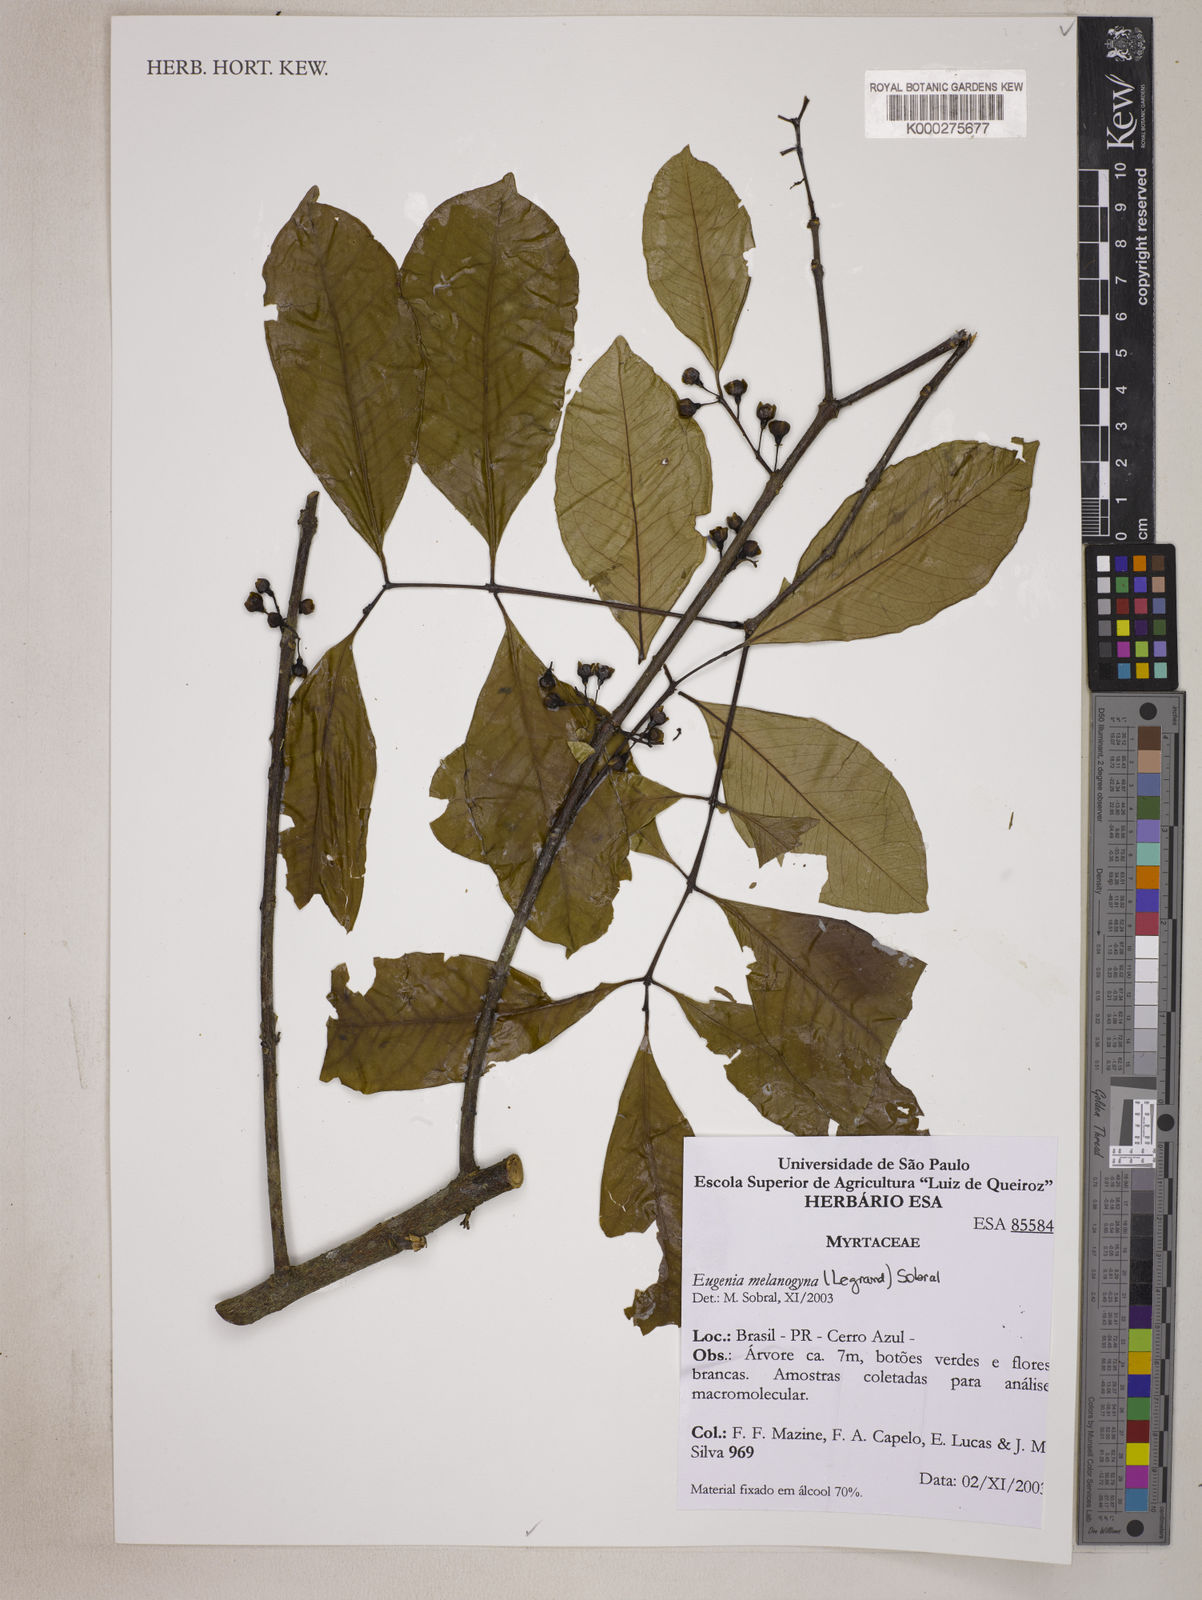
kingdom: Plantae
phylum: Tracheophyta
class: Magnoliopsida
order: Myrtales
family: Myrtaceae
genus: Eugenia
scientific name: Eugenia limbosa
